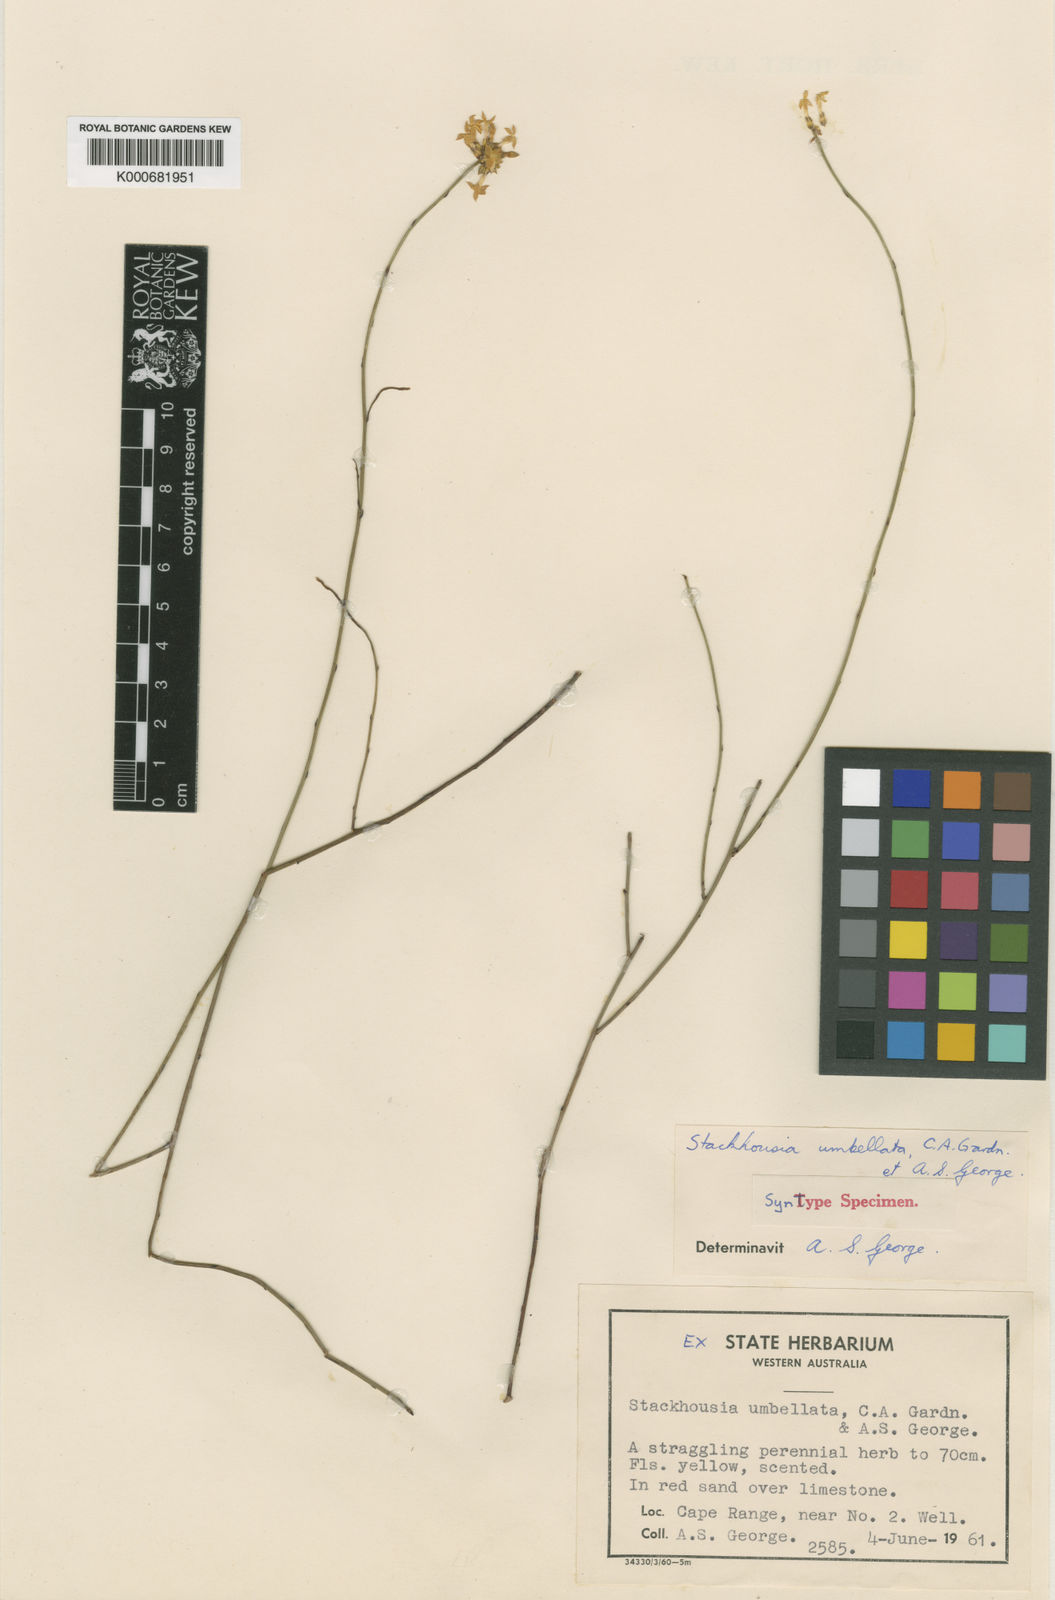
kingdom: Plantae
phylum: Tracheophyta
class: Magnoliopsida
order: Celastrales
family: Celastraceae
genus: Stackhousia
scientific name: Stackhousia umbellata
